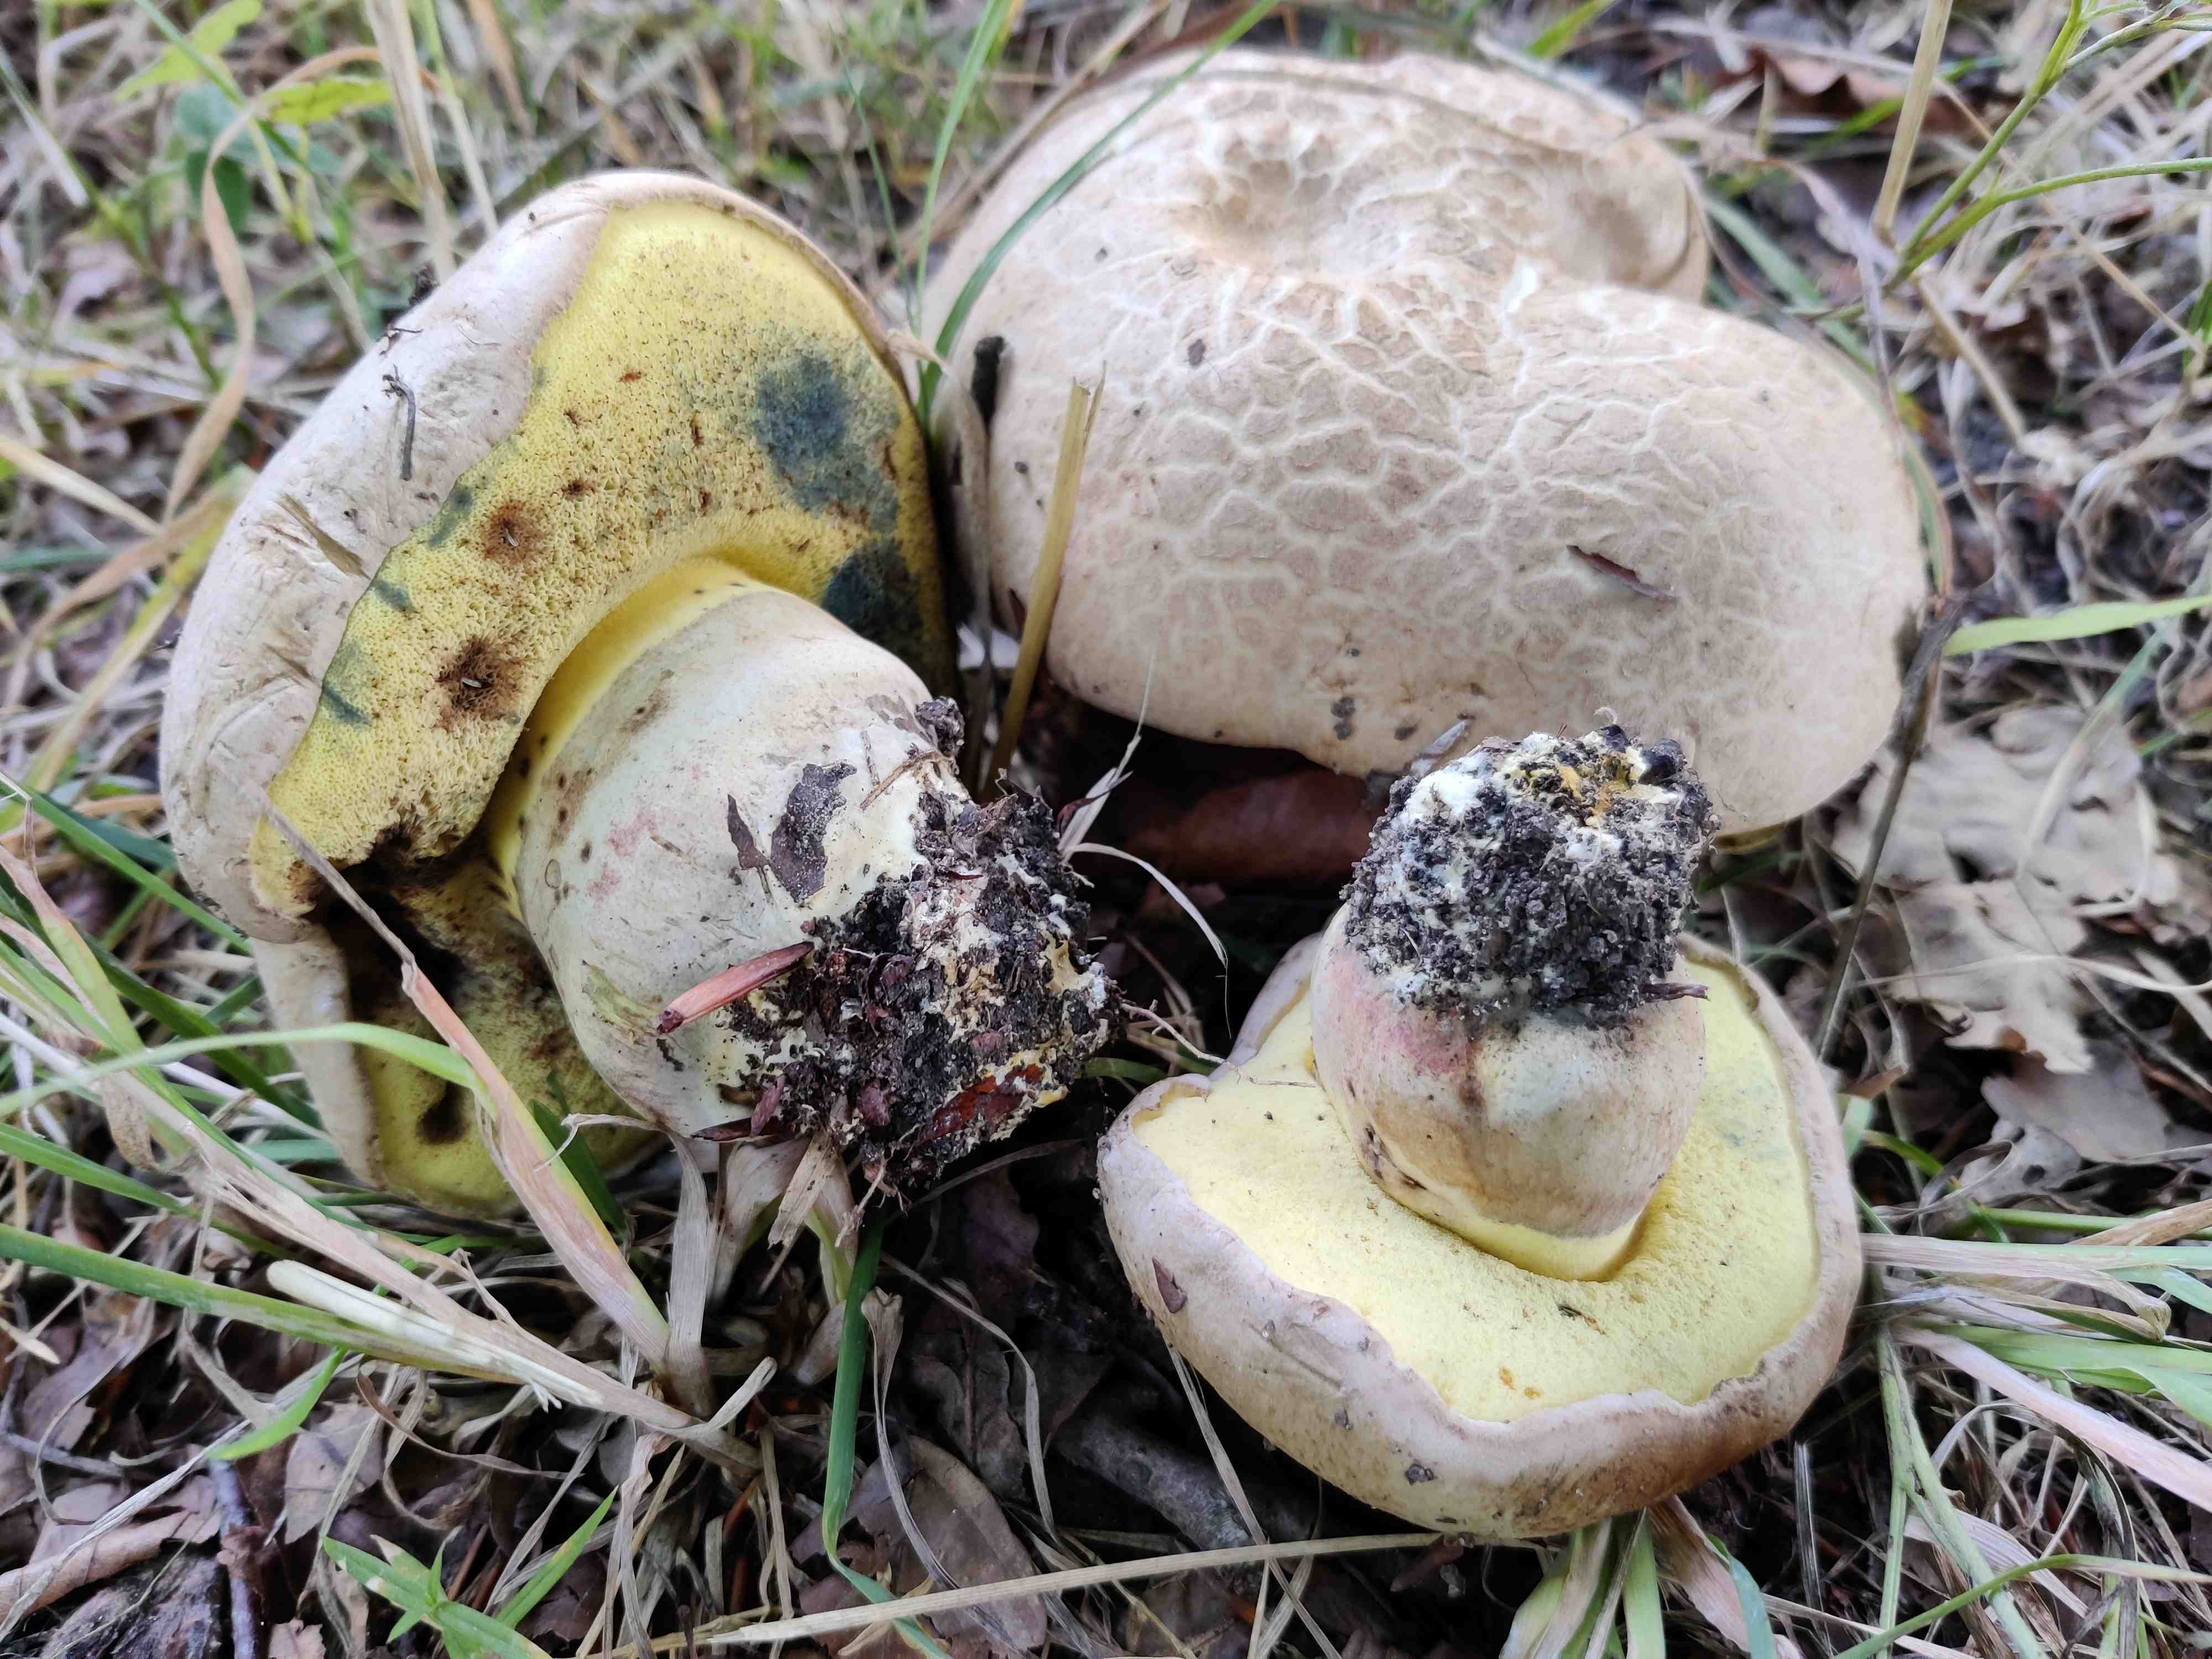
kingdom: Fungi
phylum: Basidiomycota
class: Agaricomycetes
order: Boletales
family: Boletaceae
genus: Caloboletus
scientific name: Caloboletus radicans
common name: rod-rørhat
